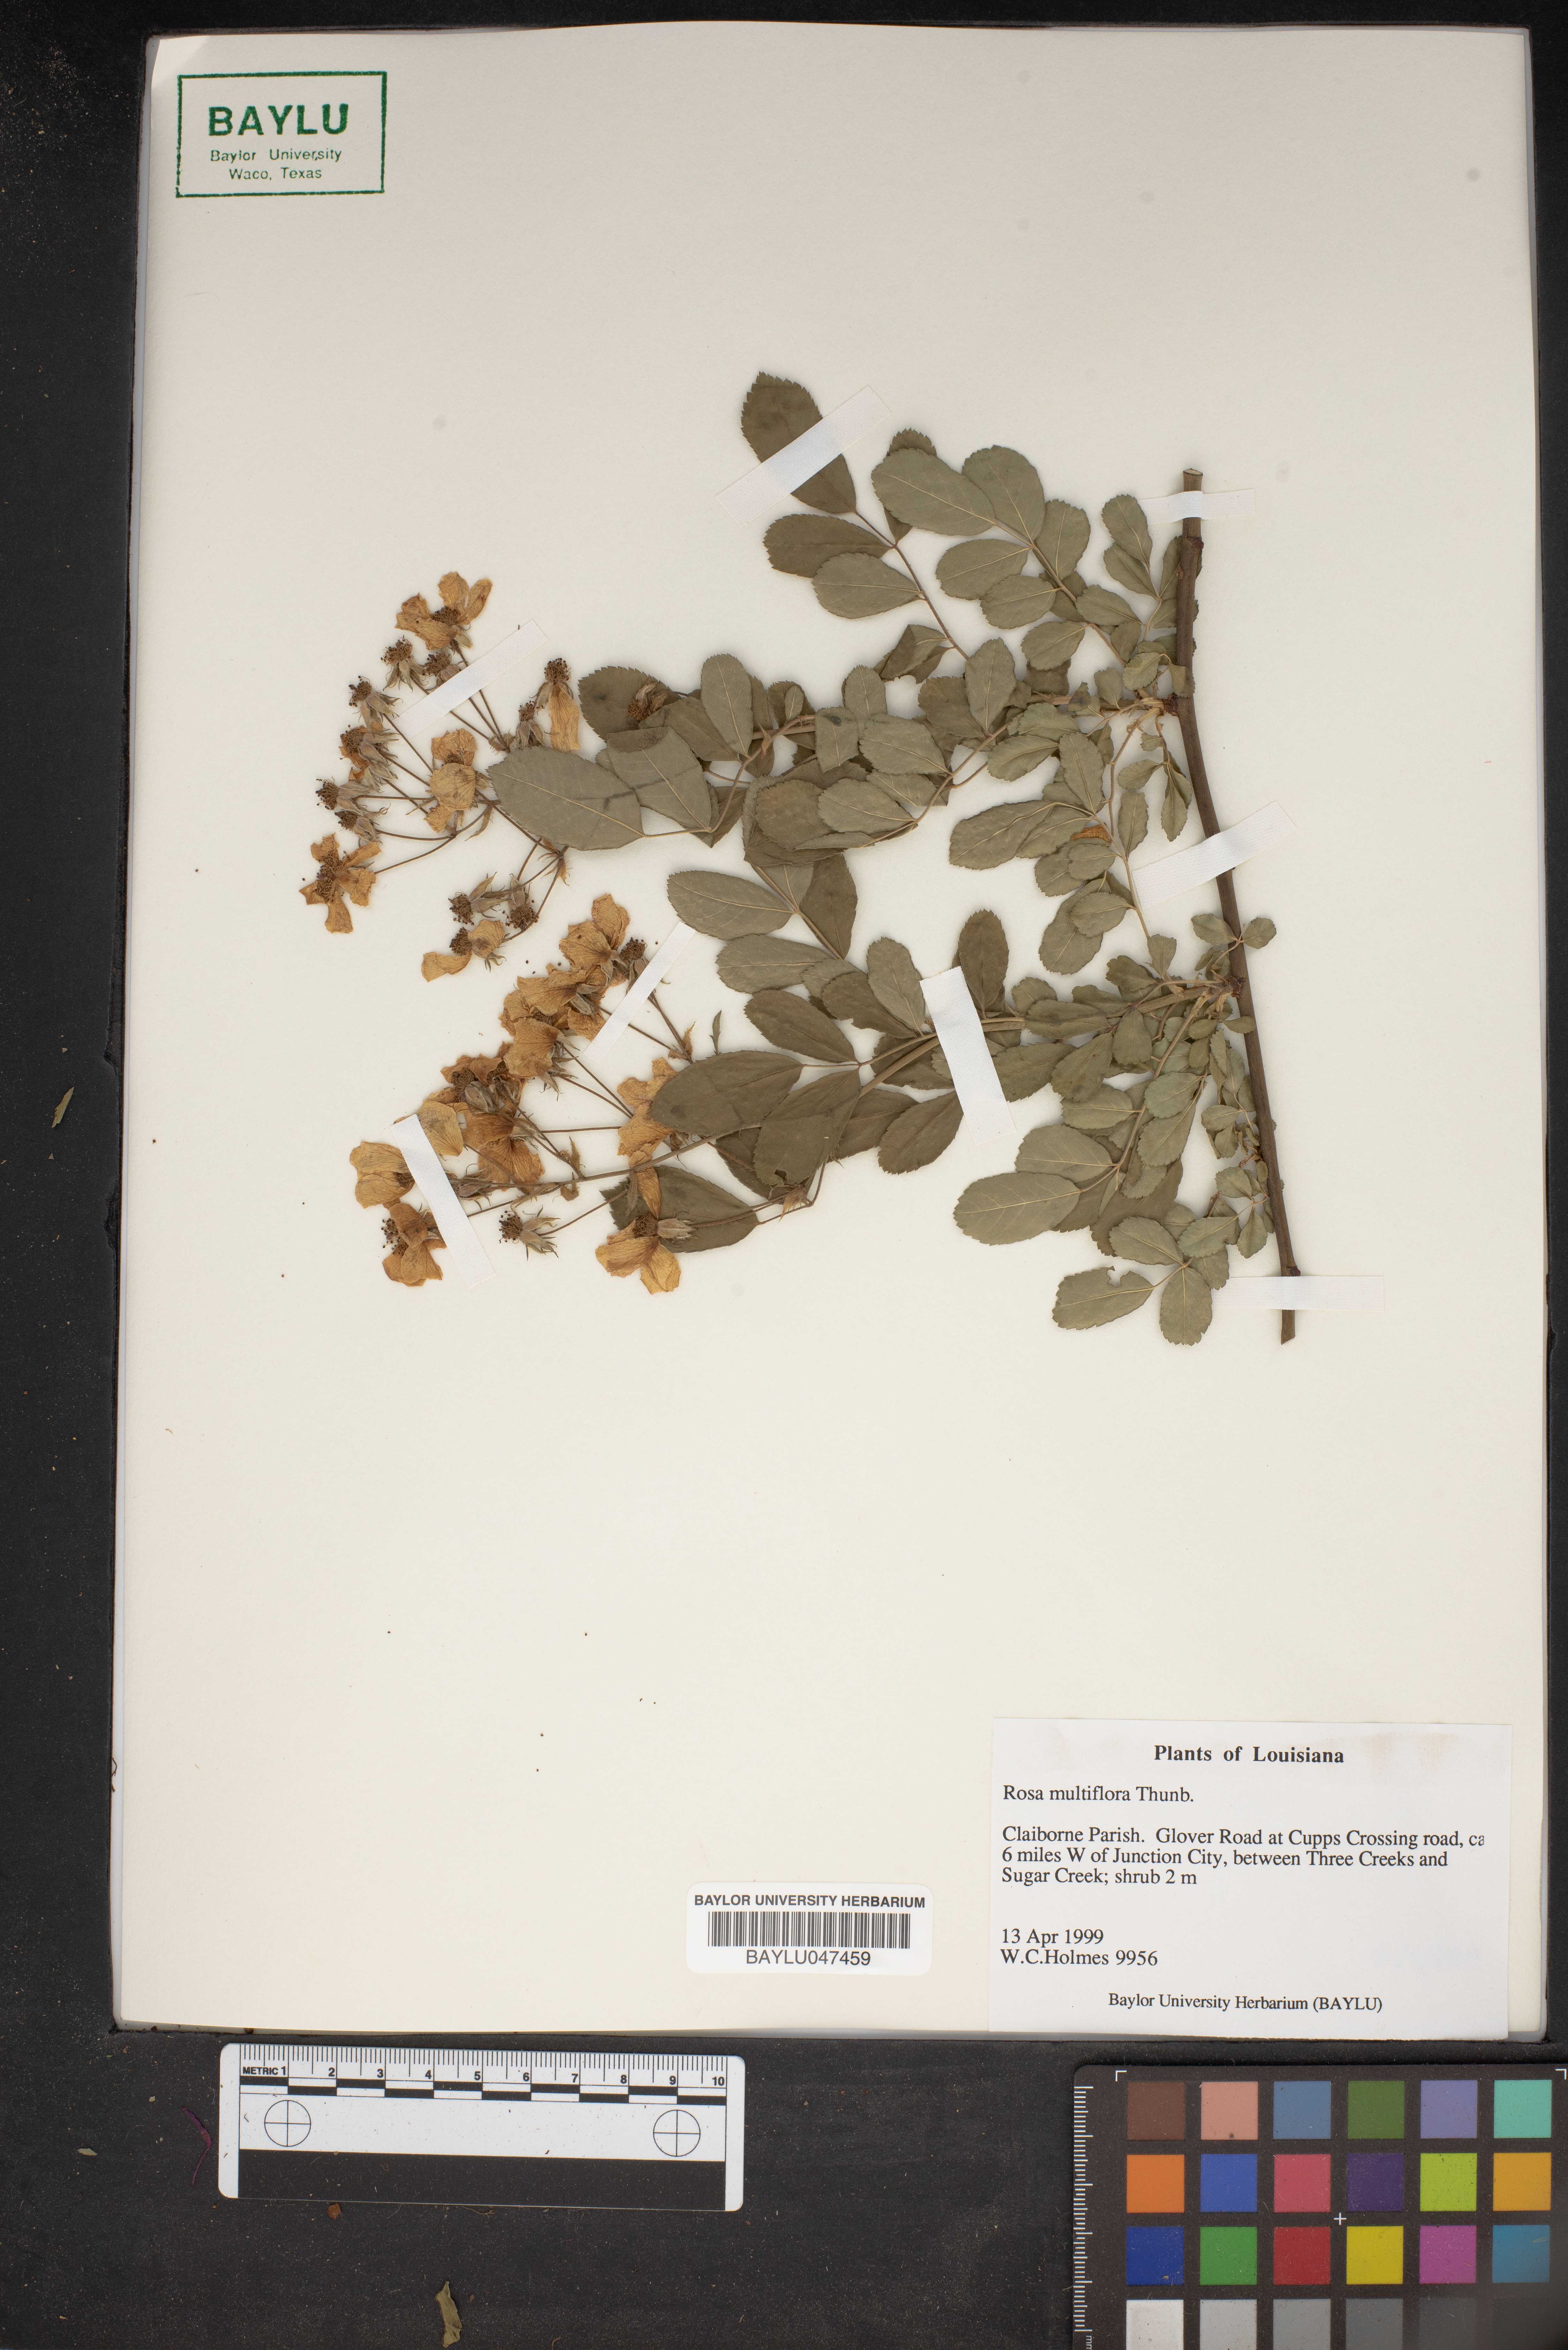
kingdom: Plantae
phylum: Tracheophyta
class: Magnoliopsida
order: Rosales
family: Rosaceae
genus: Rosa
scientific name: Rosa multiflora
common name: Multiflora rose
